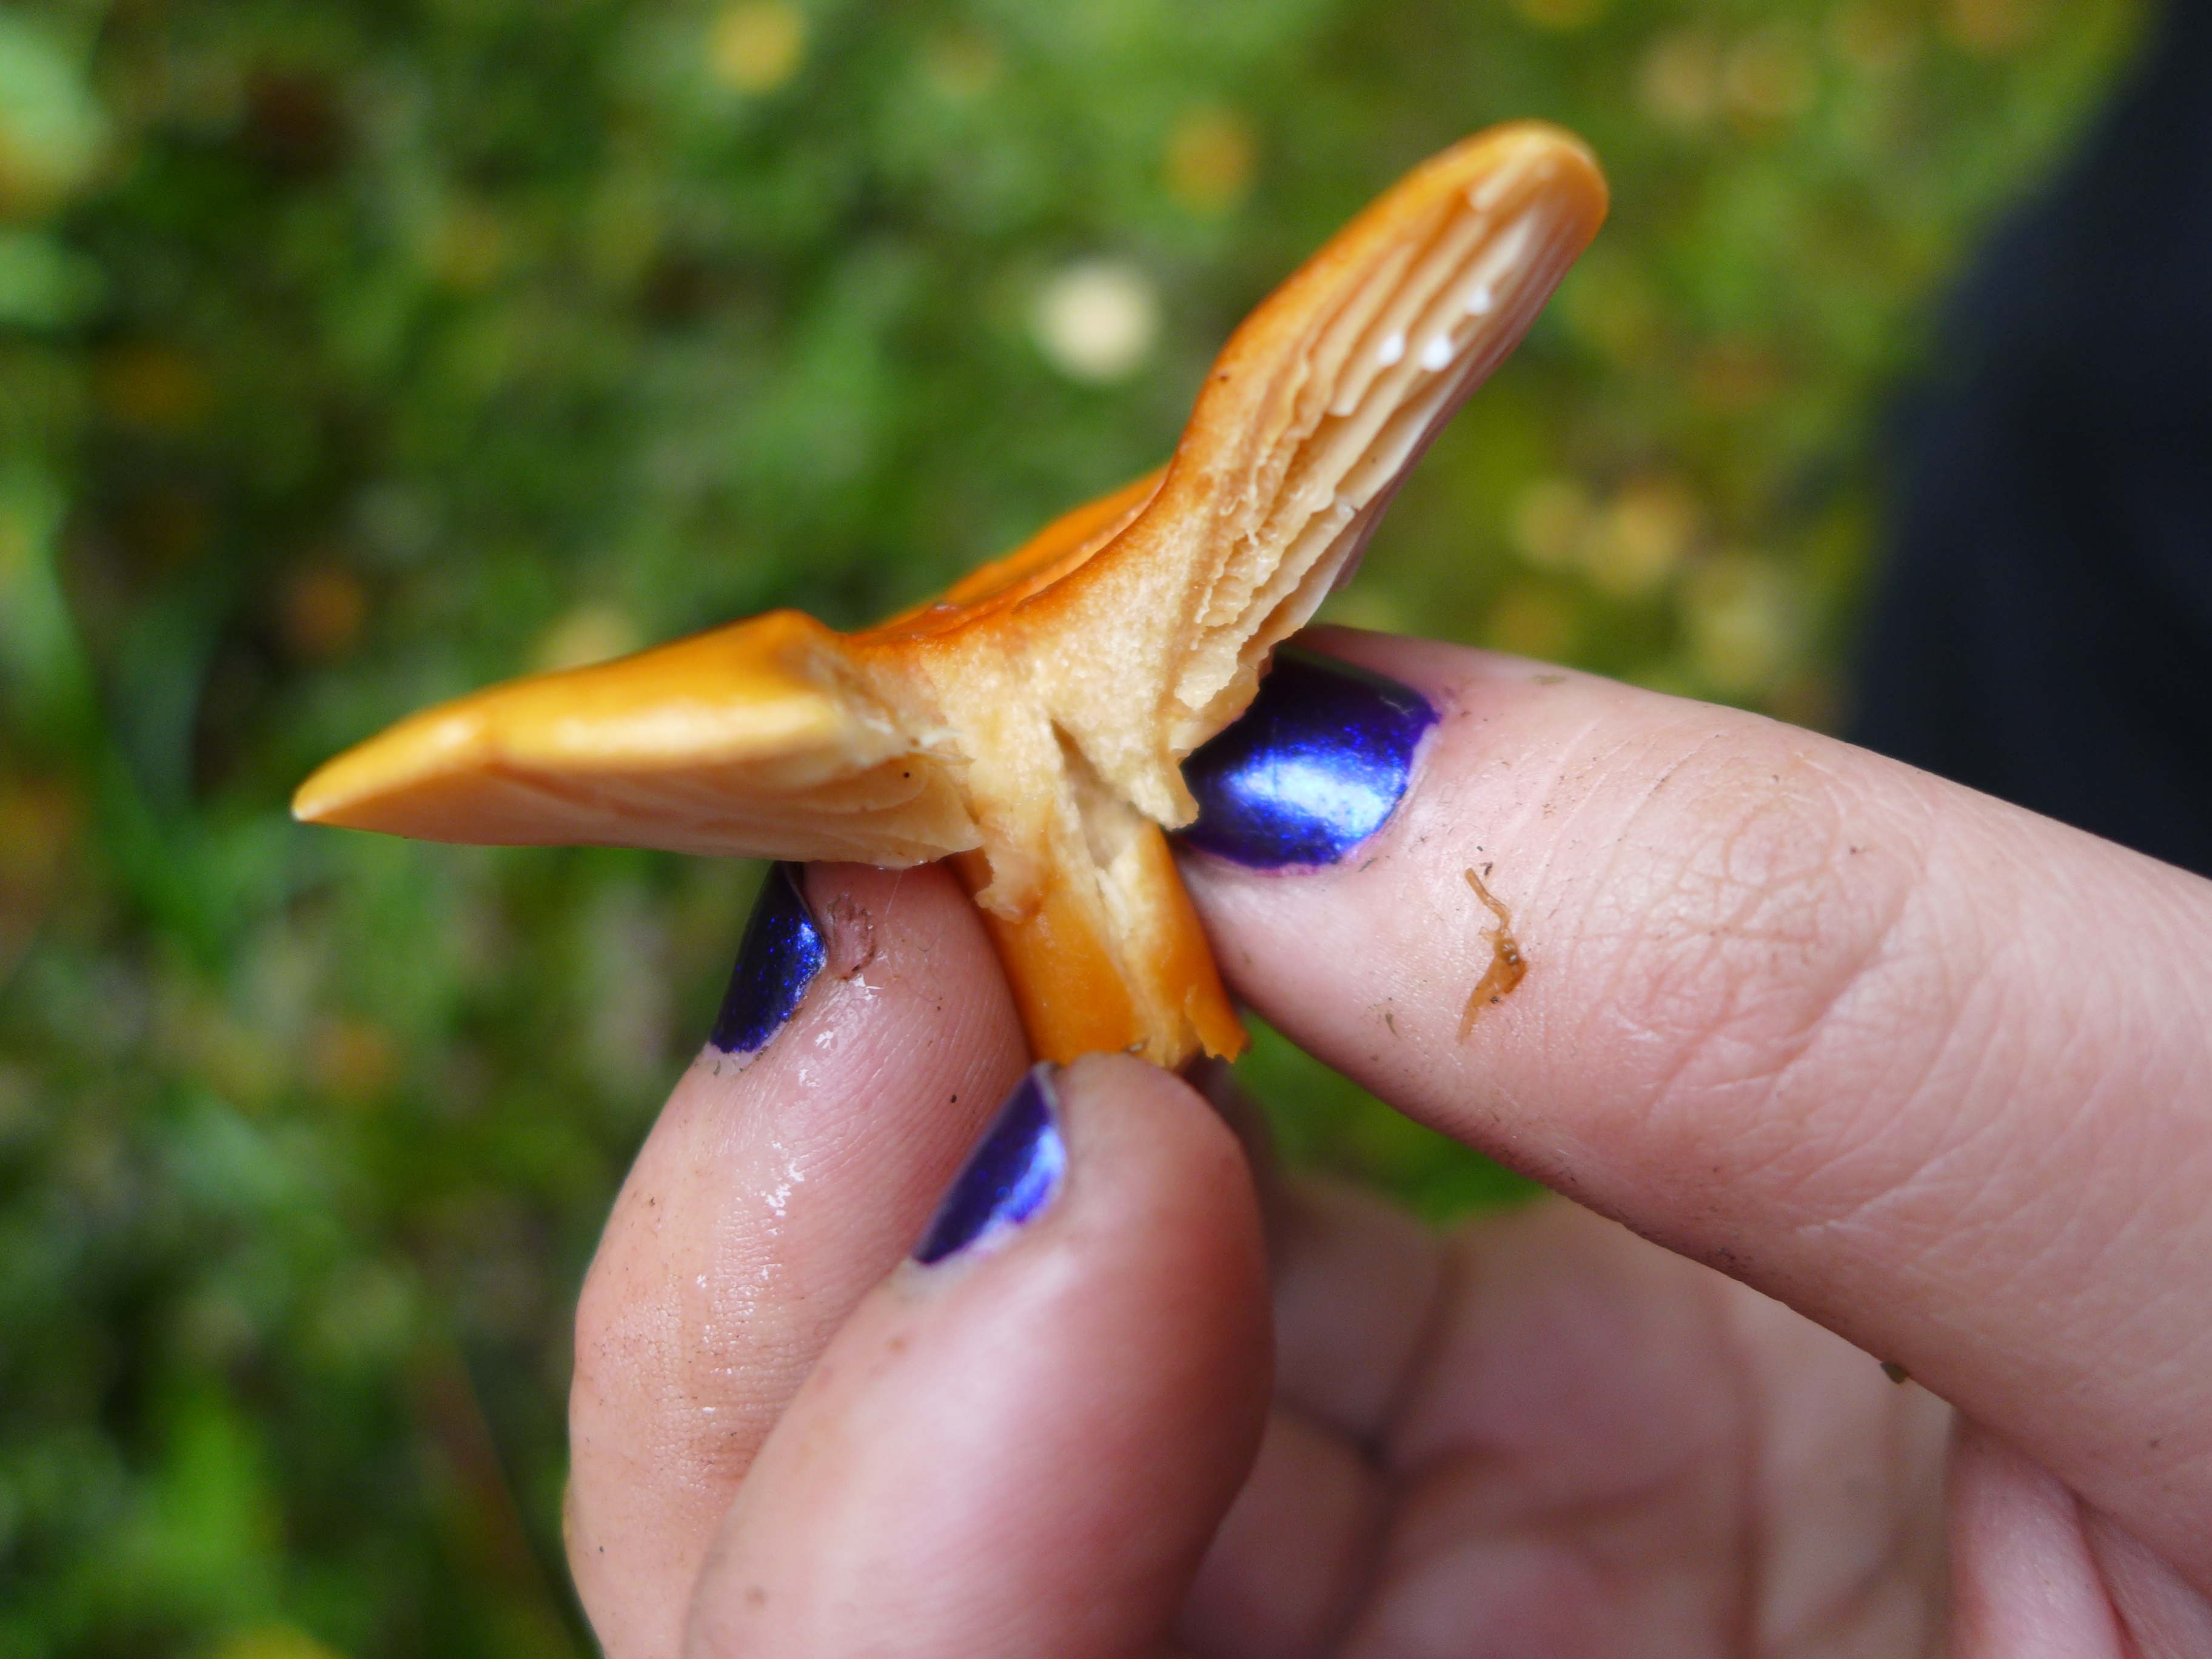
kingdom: Fungi
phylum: Basidiomycota
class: Agaricomycetes
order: Russulales
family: Russulaceae
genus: Lactarius
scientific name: Lactarius aurantiacus
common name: Orange milkcap
